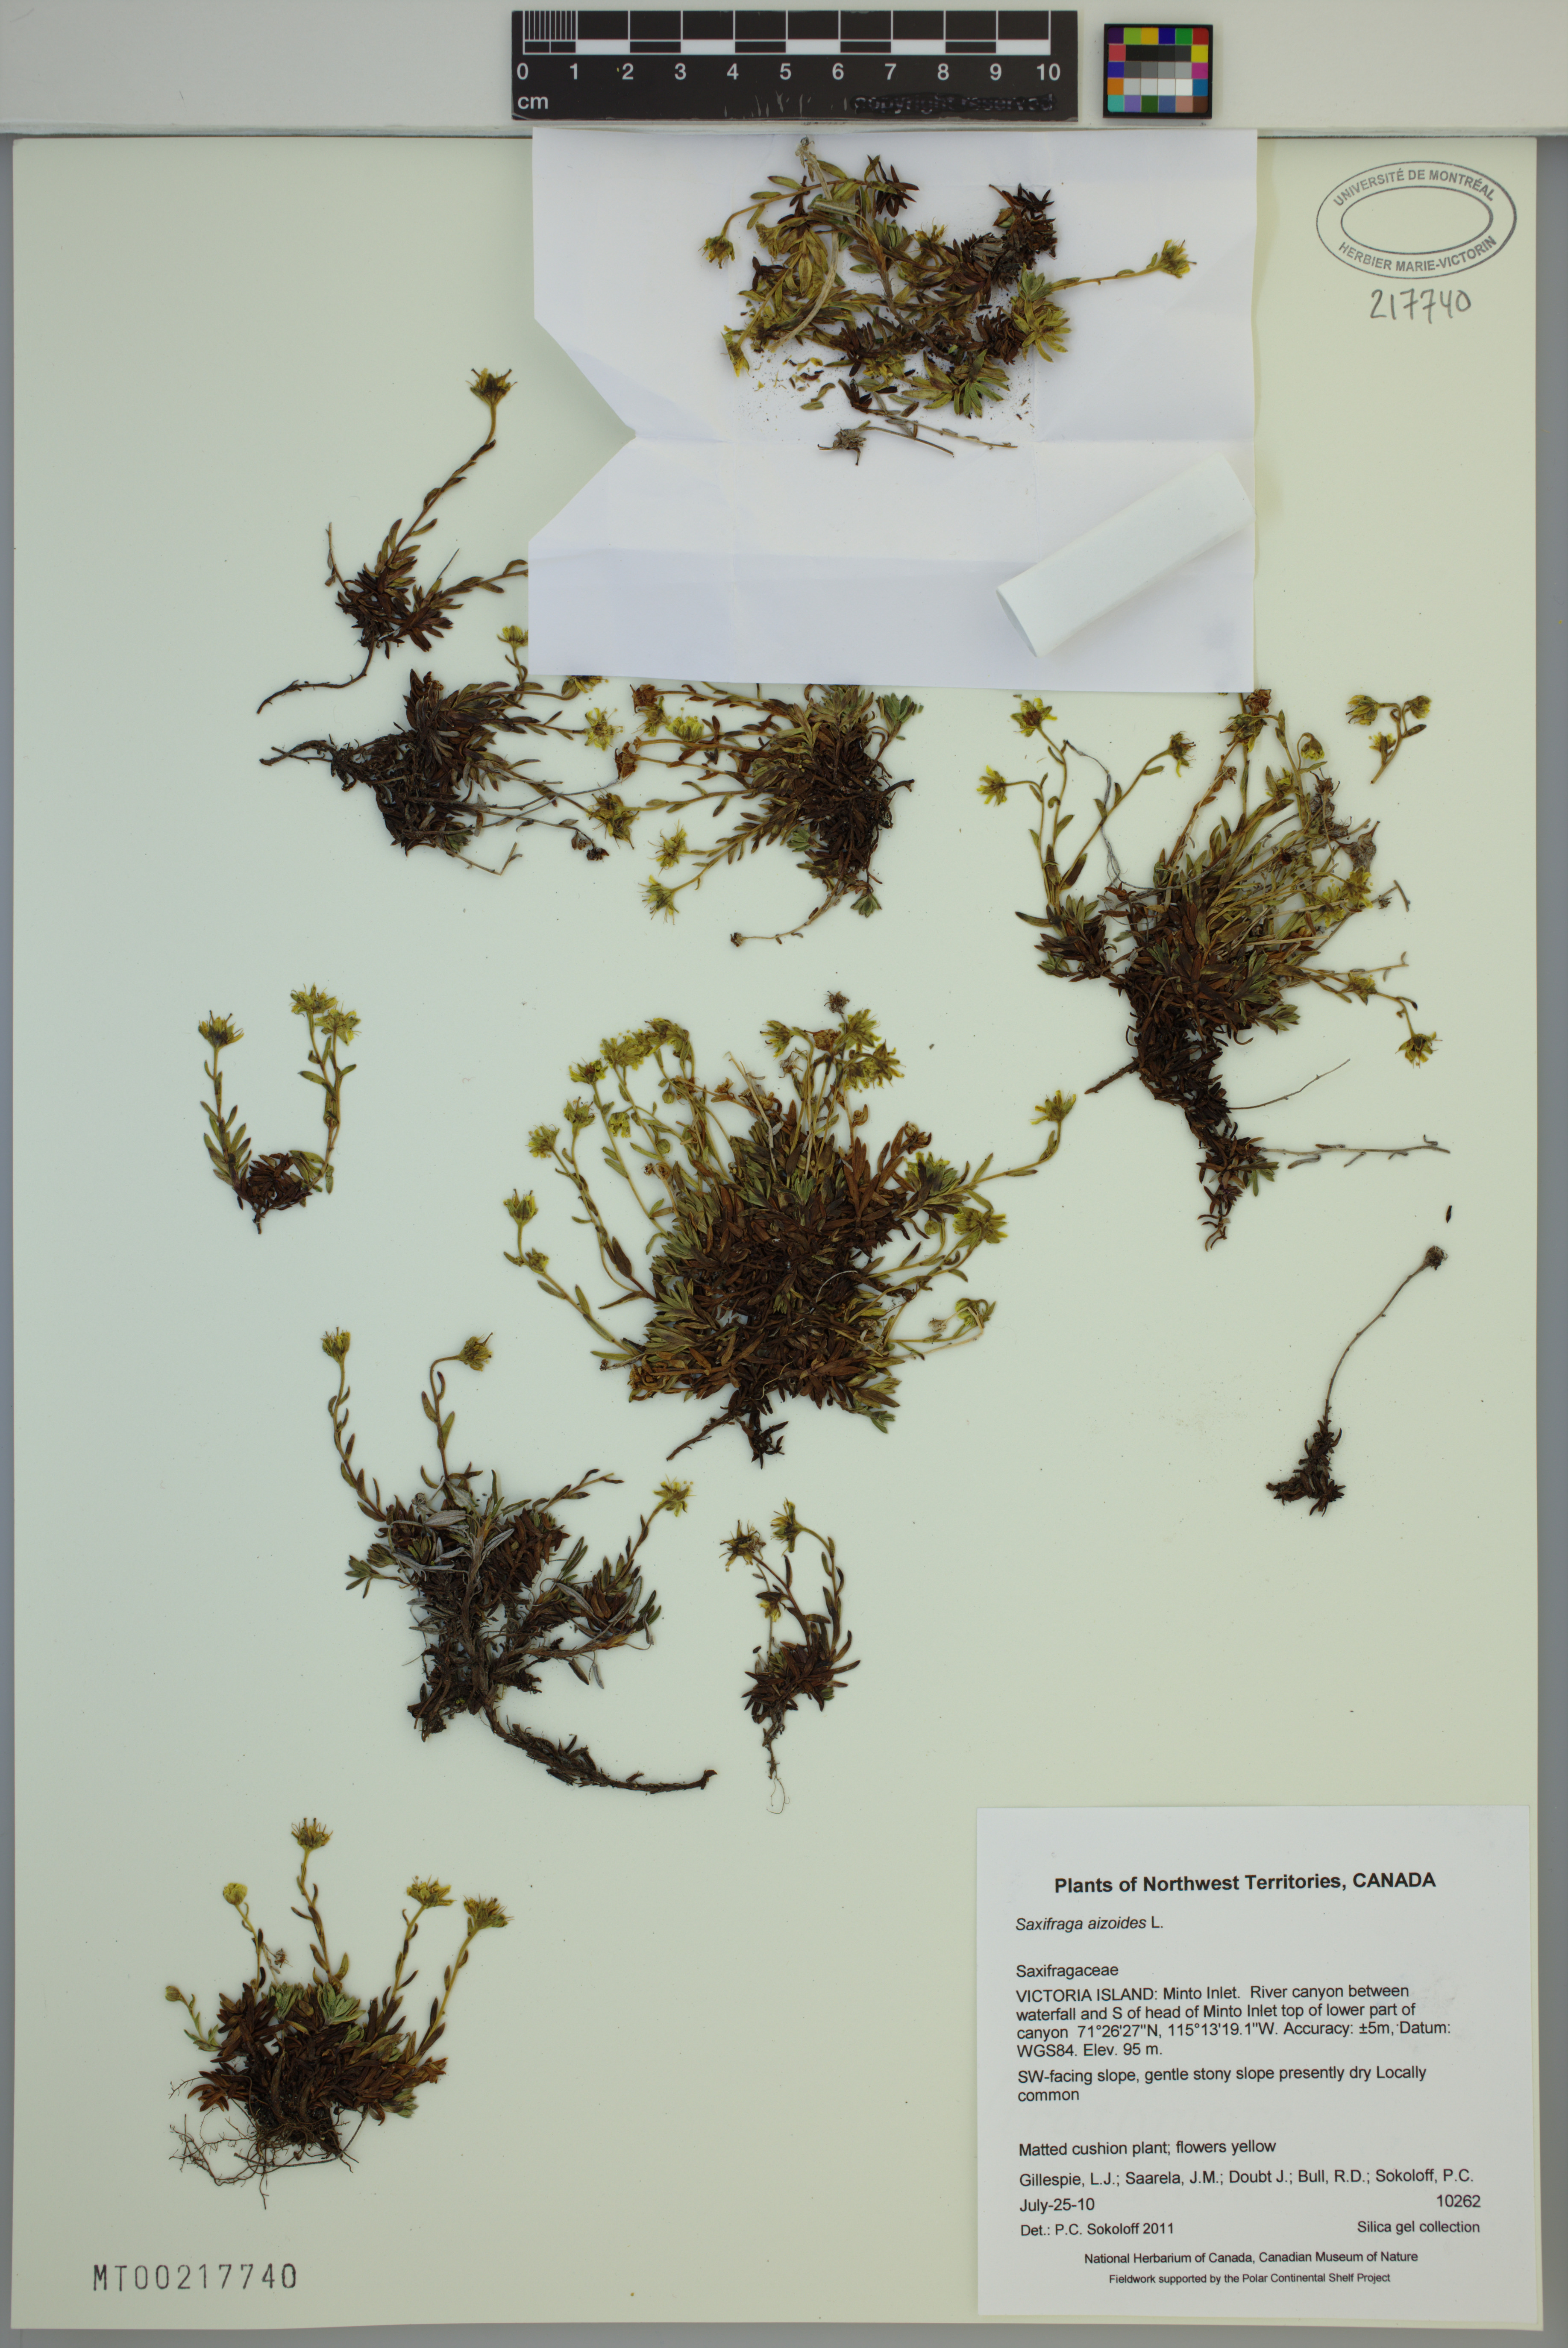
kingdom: Plantae
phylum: Tracheophyta
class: Magnoliopsida
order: Saxifragales
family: Saxifragaceae
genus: Saxifraga
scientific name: Saxifraga aizoides
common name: Yellow mountain saxifrage
